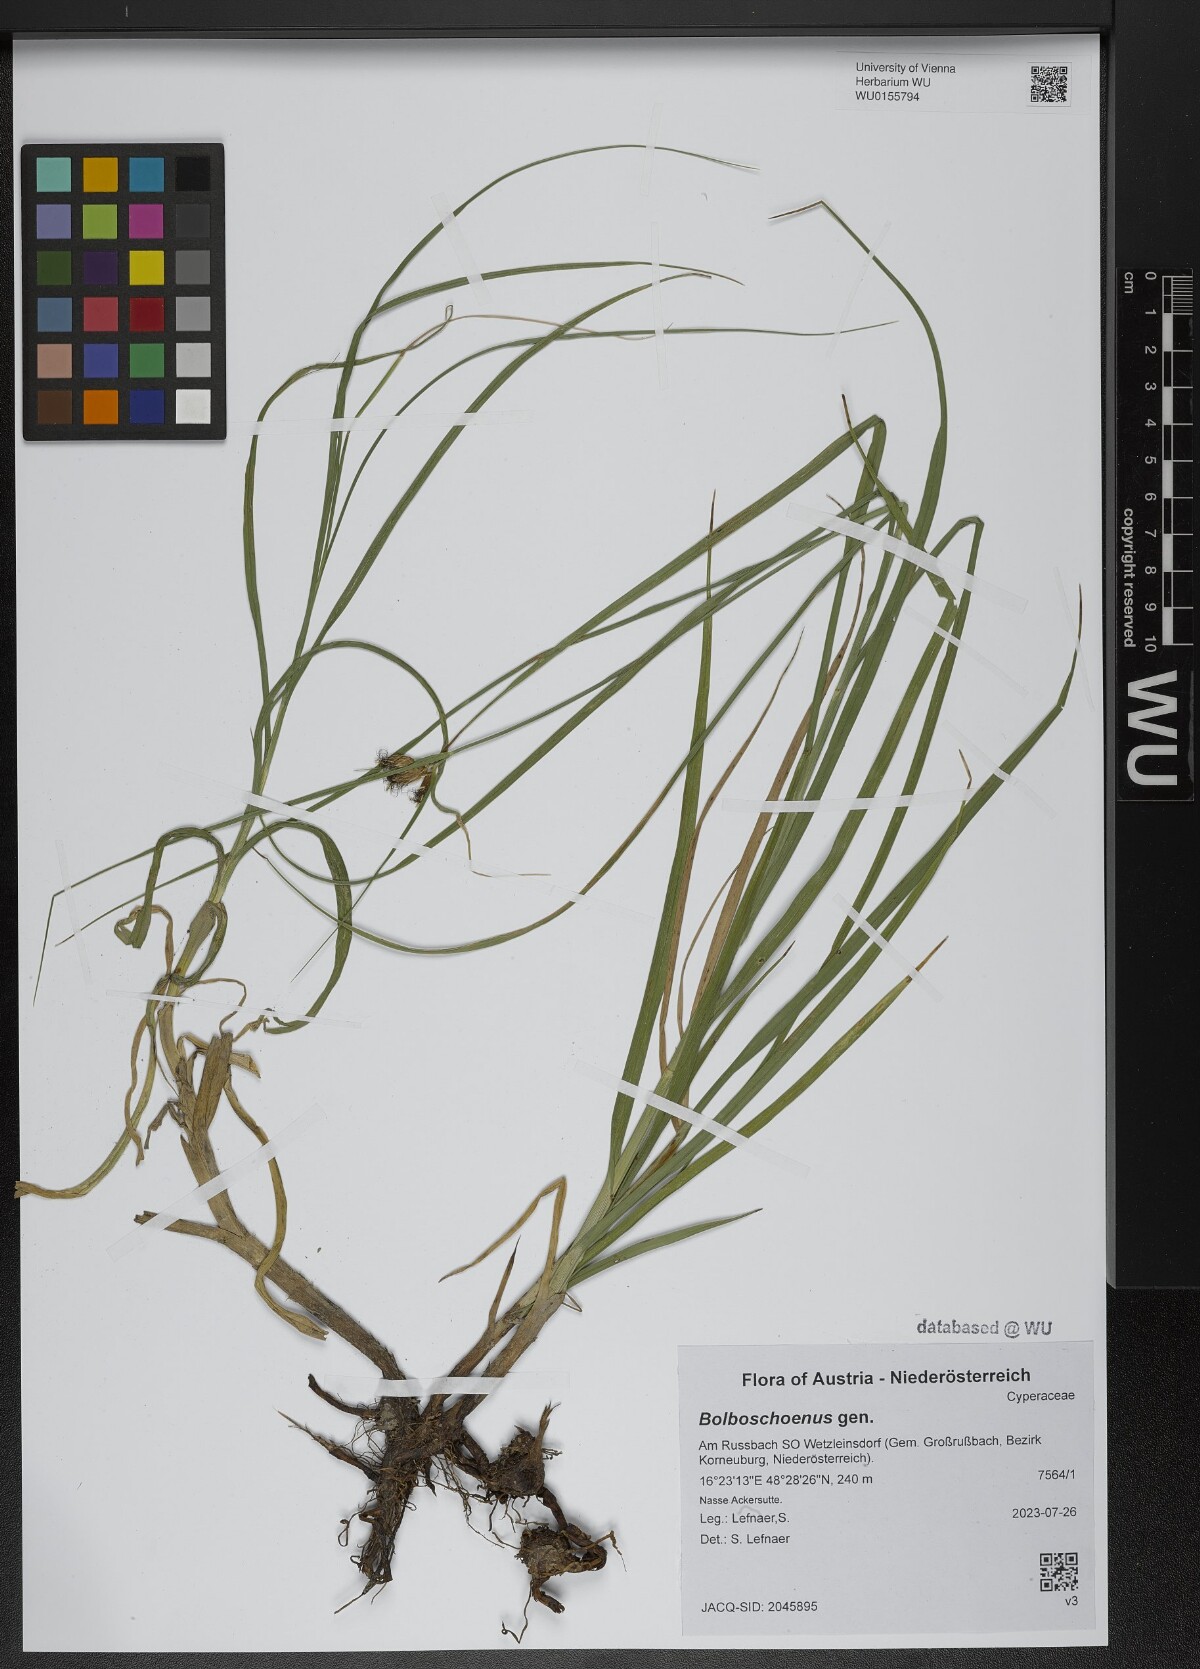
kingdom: Plantae
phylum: Tracheophyta
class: Liliopsida
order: Poales
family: Cyperaceae
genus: Bolboschoenus
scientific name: Bolboschoenus
